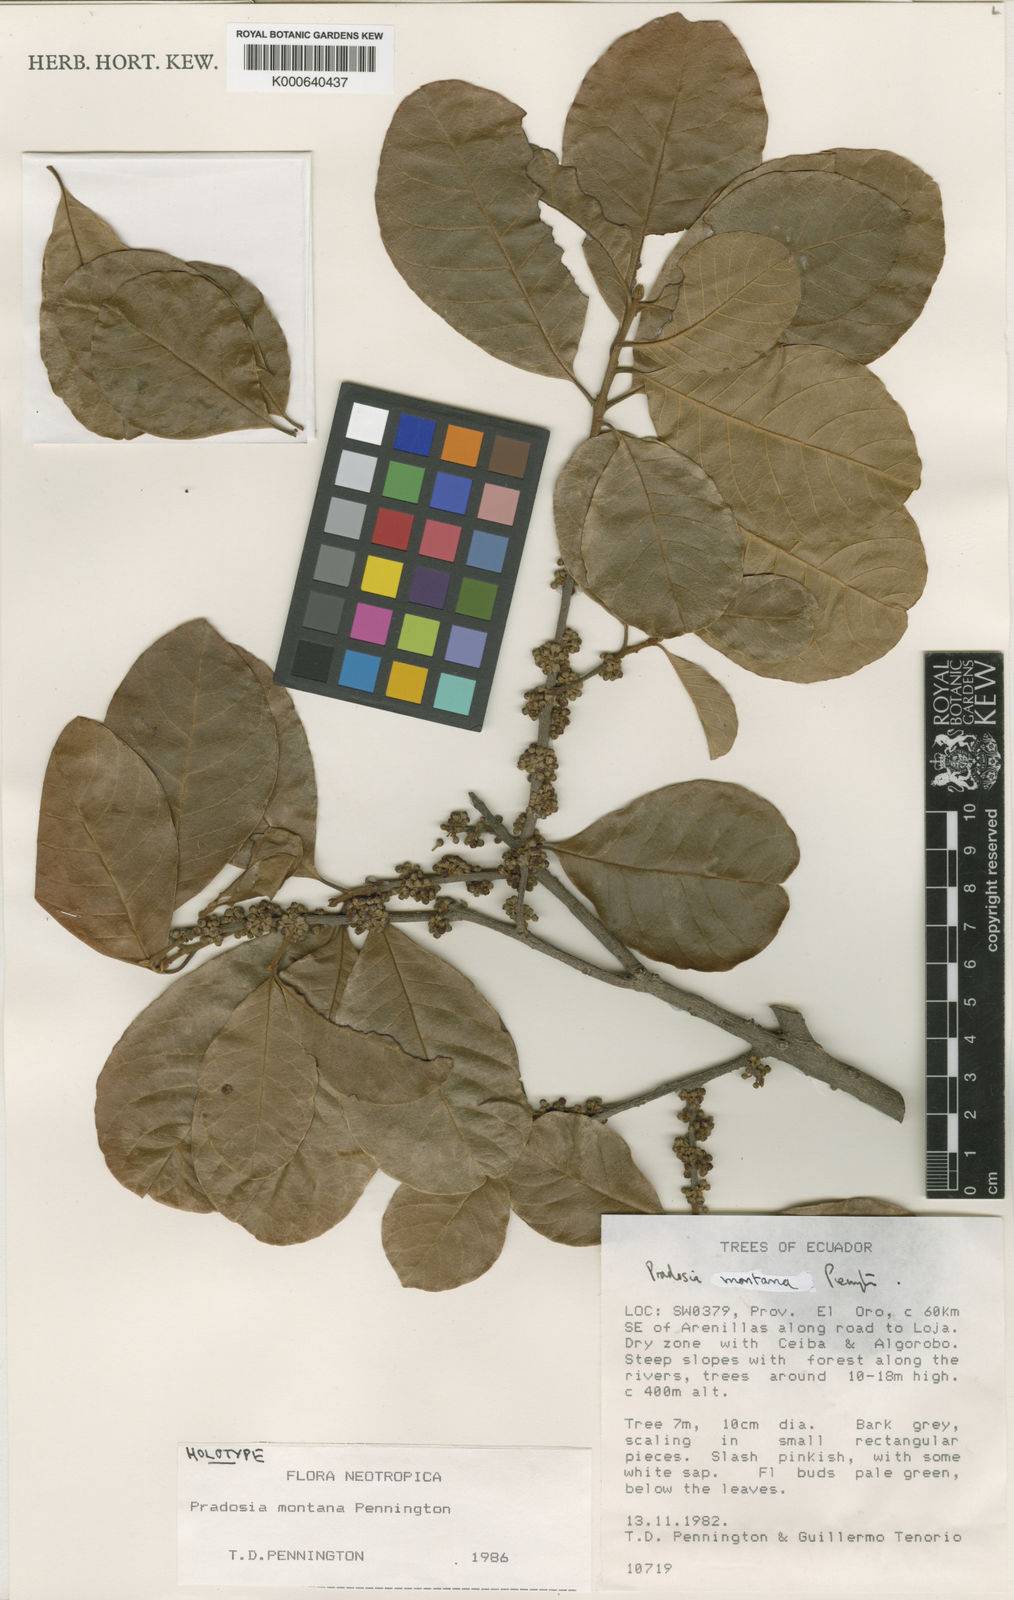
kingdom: Plantae
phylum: Tracheophyta
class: Magnoliopsida
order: Ericales
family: Sapotaceae
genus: Pradosia
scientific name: Pradosia montana
